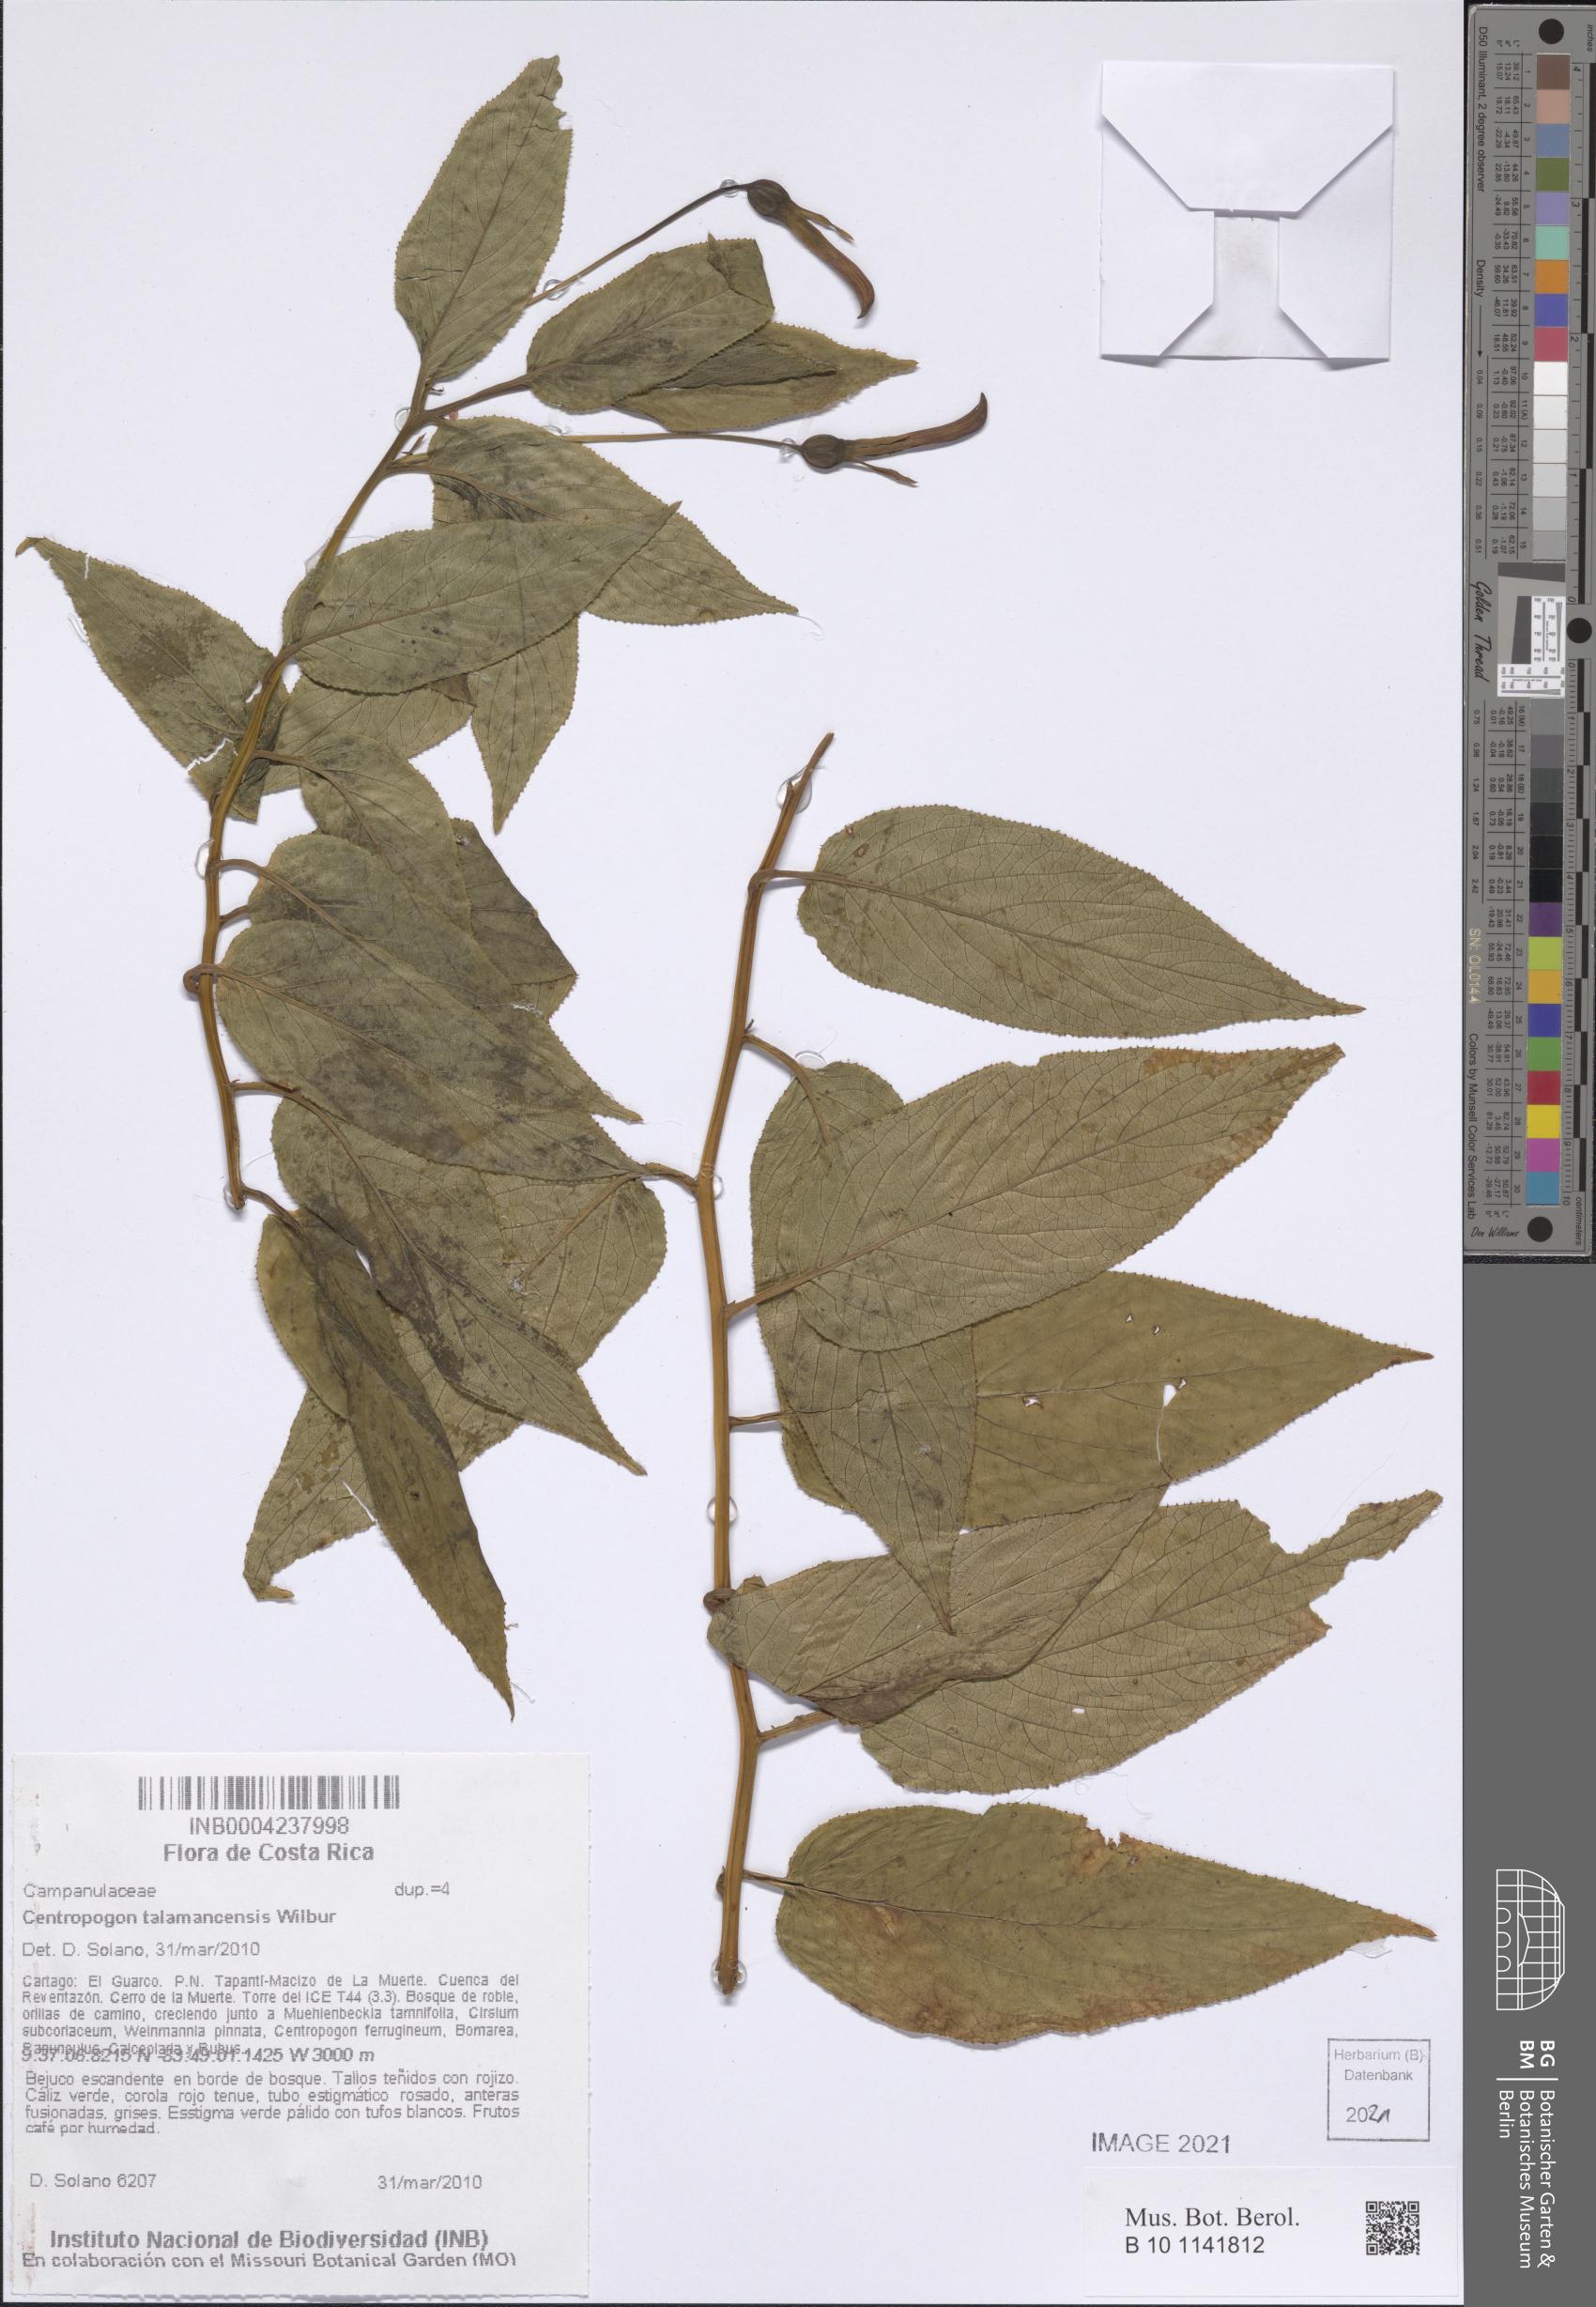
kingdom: Plantae
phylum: Tracheophyta
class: Magnoliopsida
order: Asterales
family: Campanulaceae
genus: Centropogon
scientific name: Centropogon talamancensis
